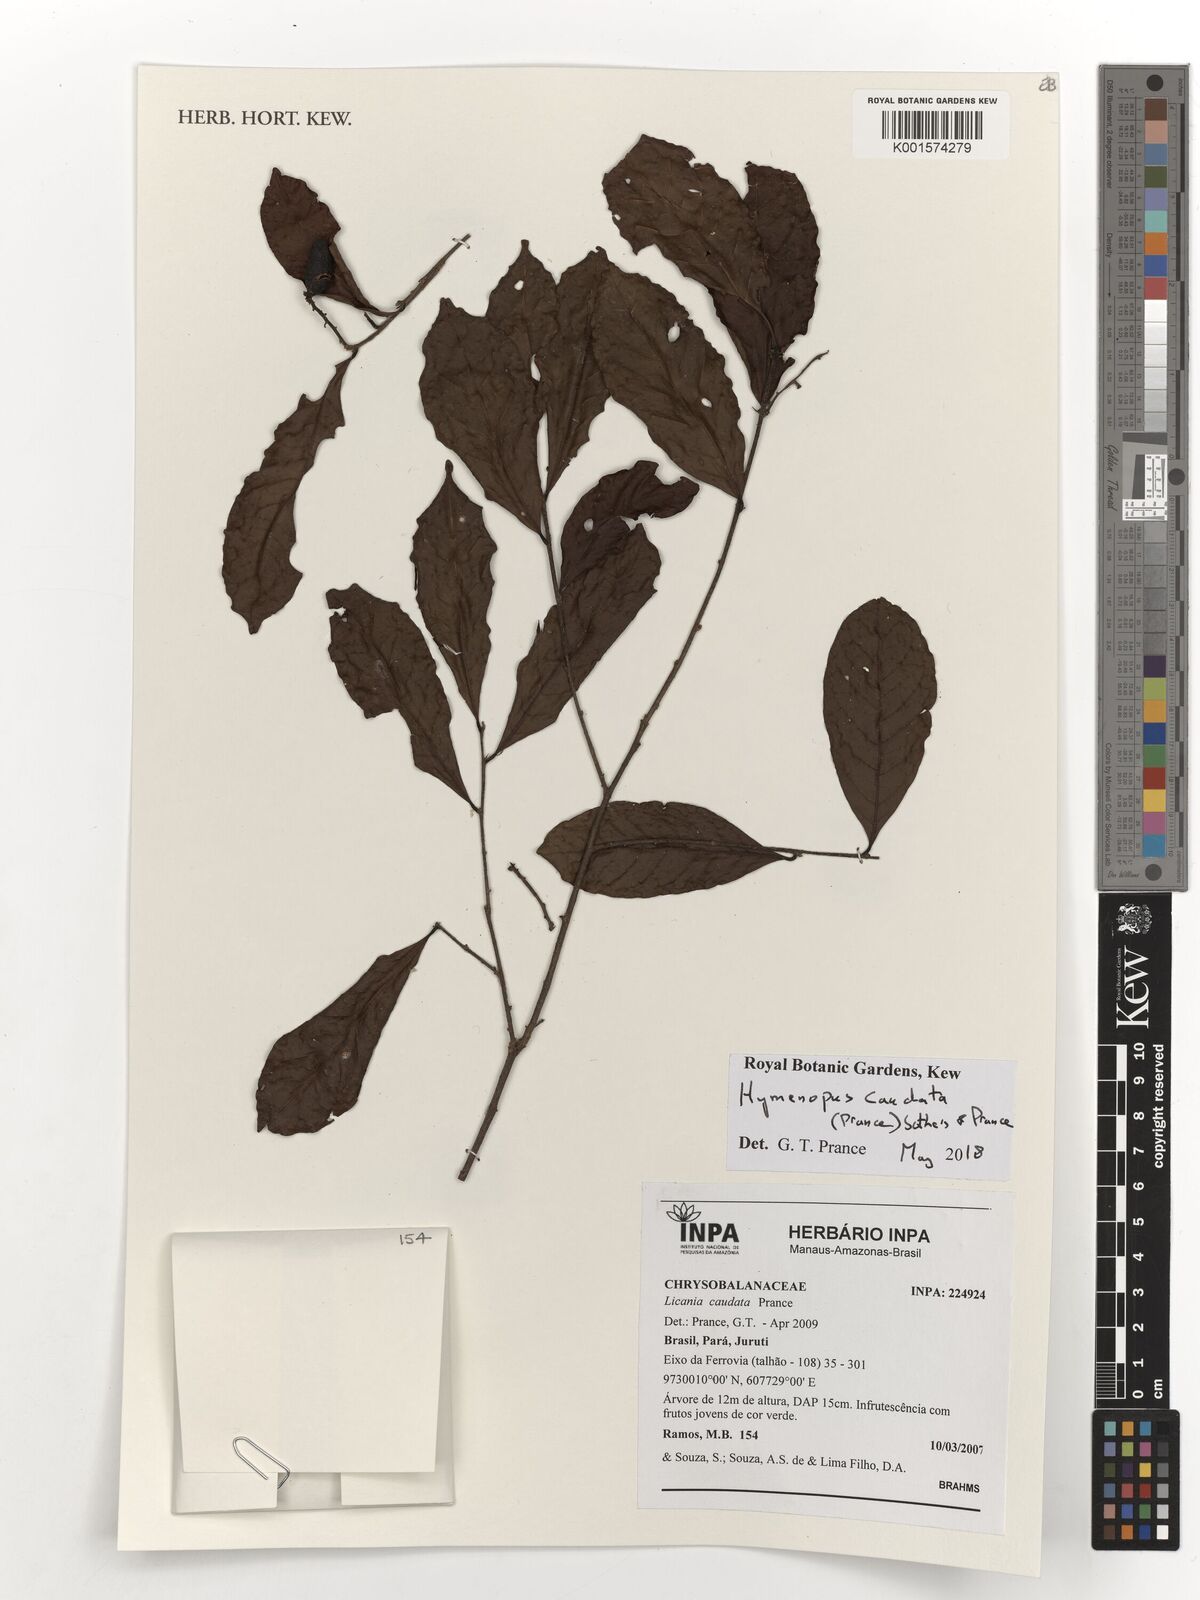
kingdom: Plantae
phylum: Tracheophyta
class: Magnoliopsida
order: Malpighiales
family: Chrysobalanaceae
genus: Hymenopus
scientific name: Hymenopus caudatus
